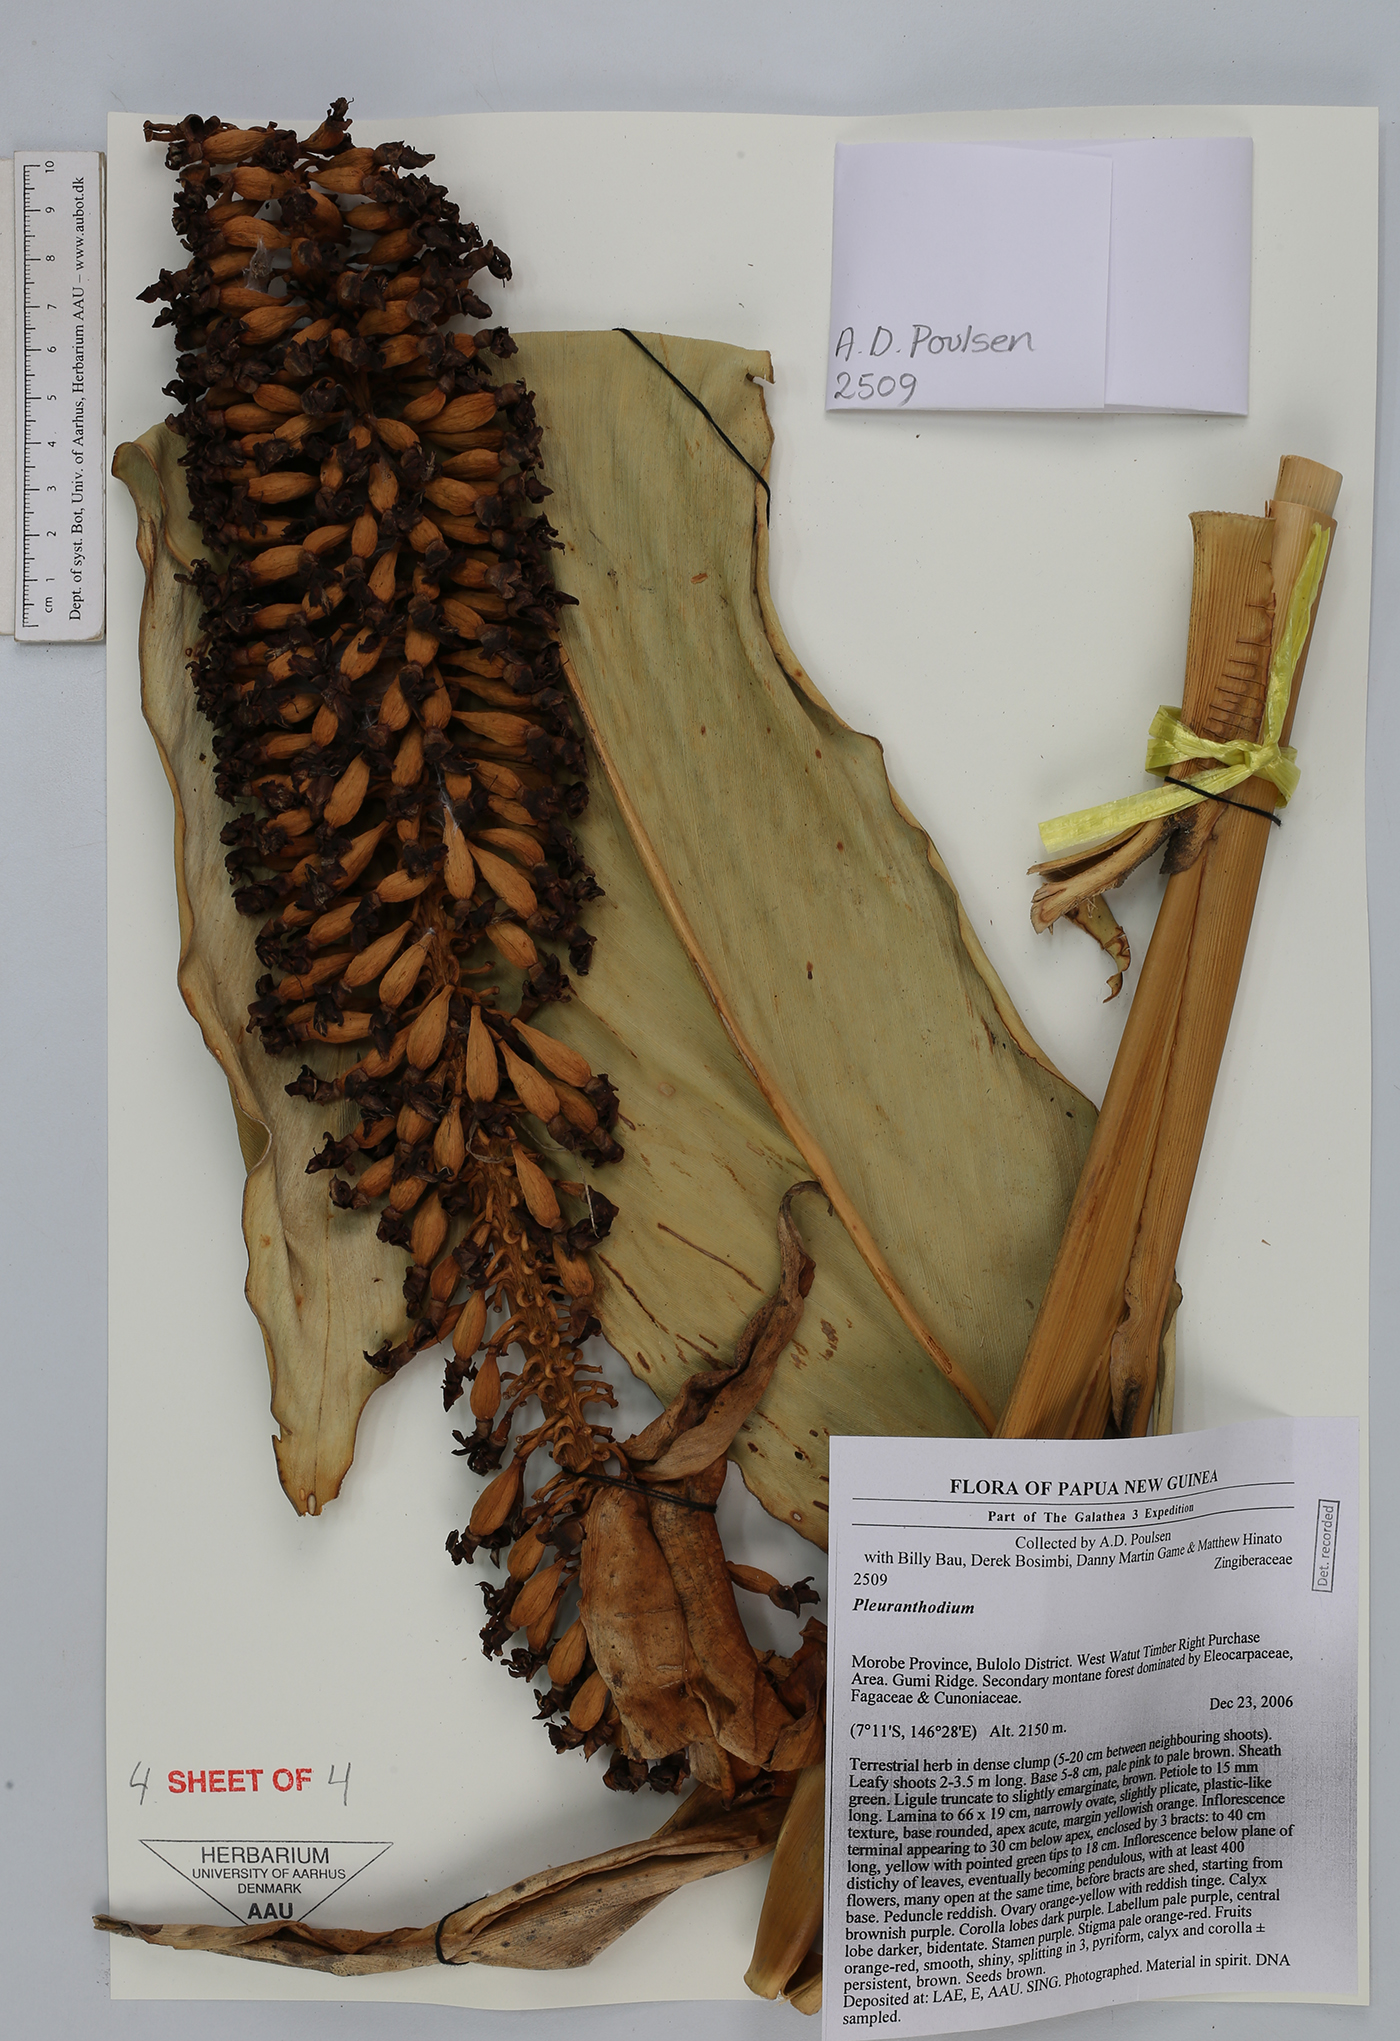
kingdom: Plantae
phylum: Tracheophyta
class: Liliopsida
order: Zingiberales
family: Zingiberaceae
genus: Pleuranthodium
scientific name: Pleuranthodium
